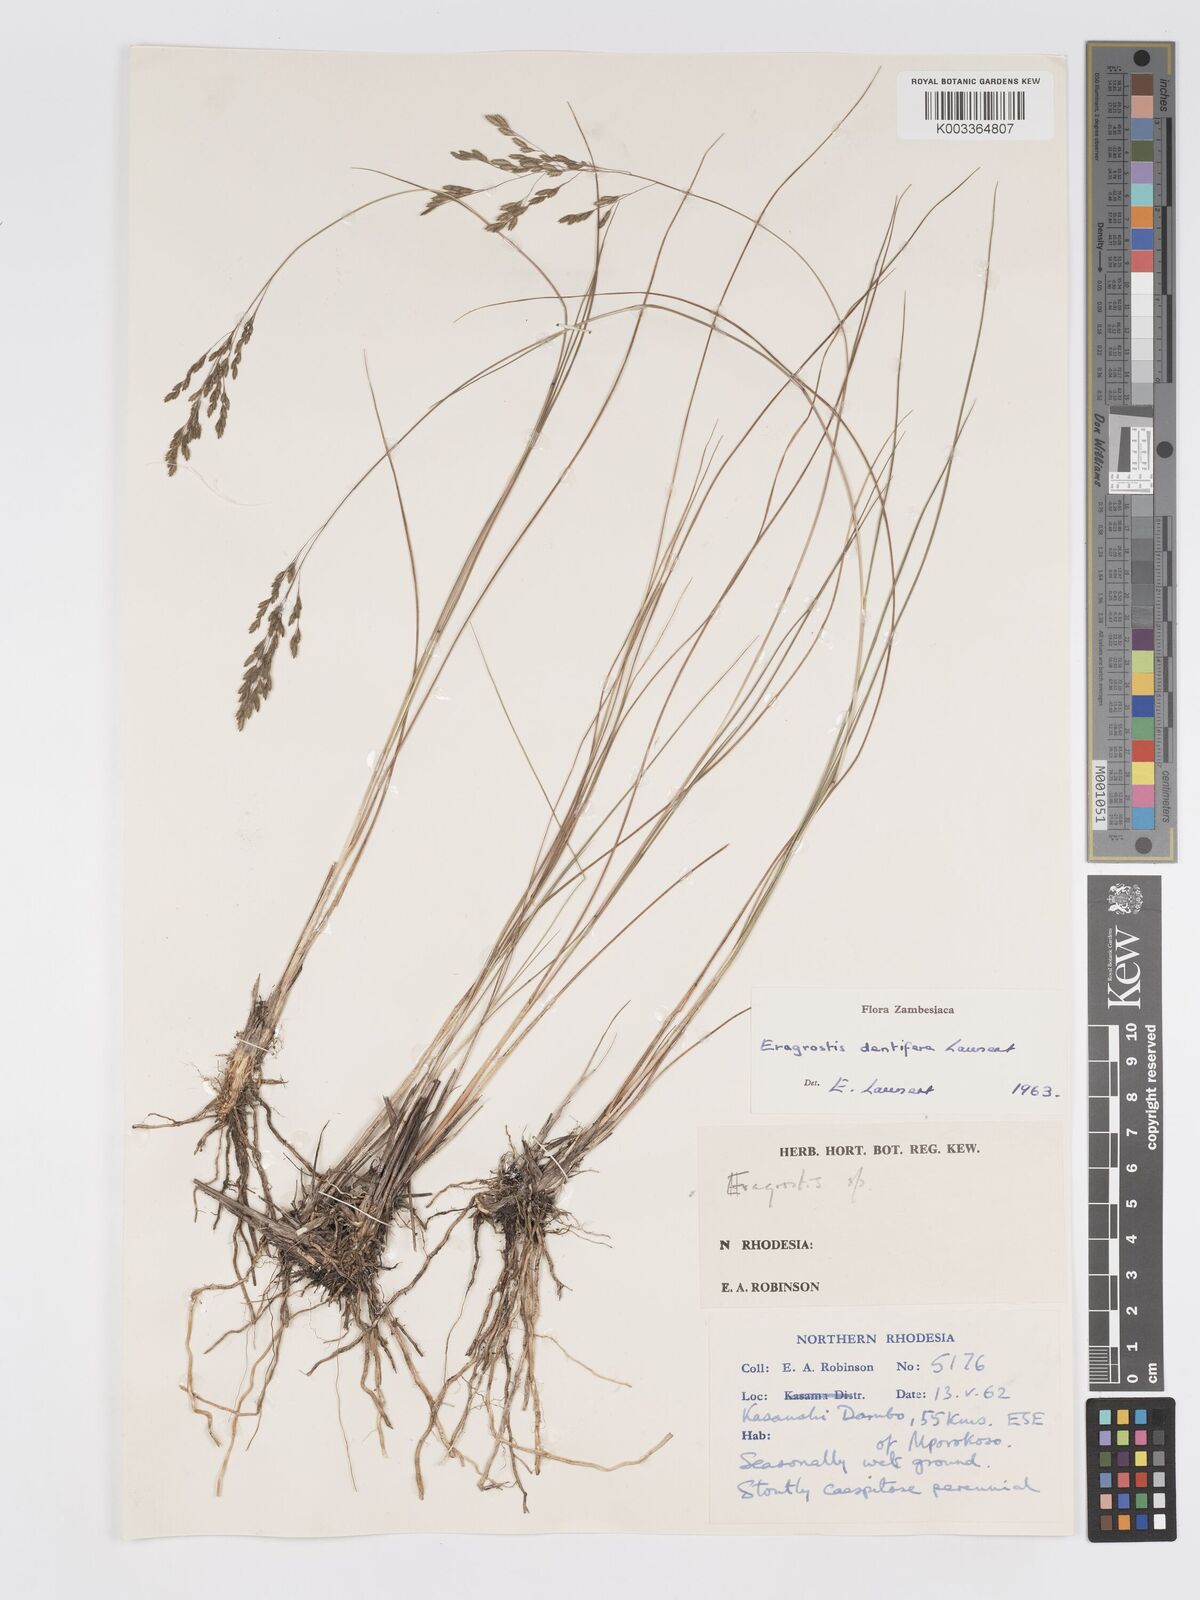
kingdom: Plantae
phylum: Tracheophyta
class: Liliopsida
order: Poales
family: Poaceae
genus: Eragrostis
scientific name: Eragrostis dentifera
